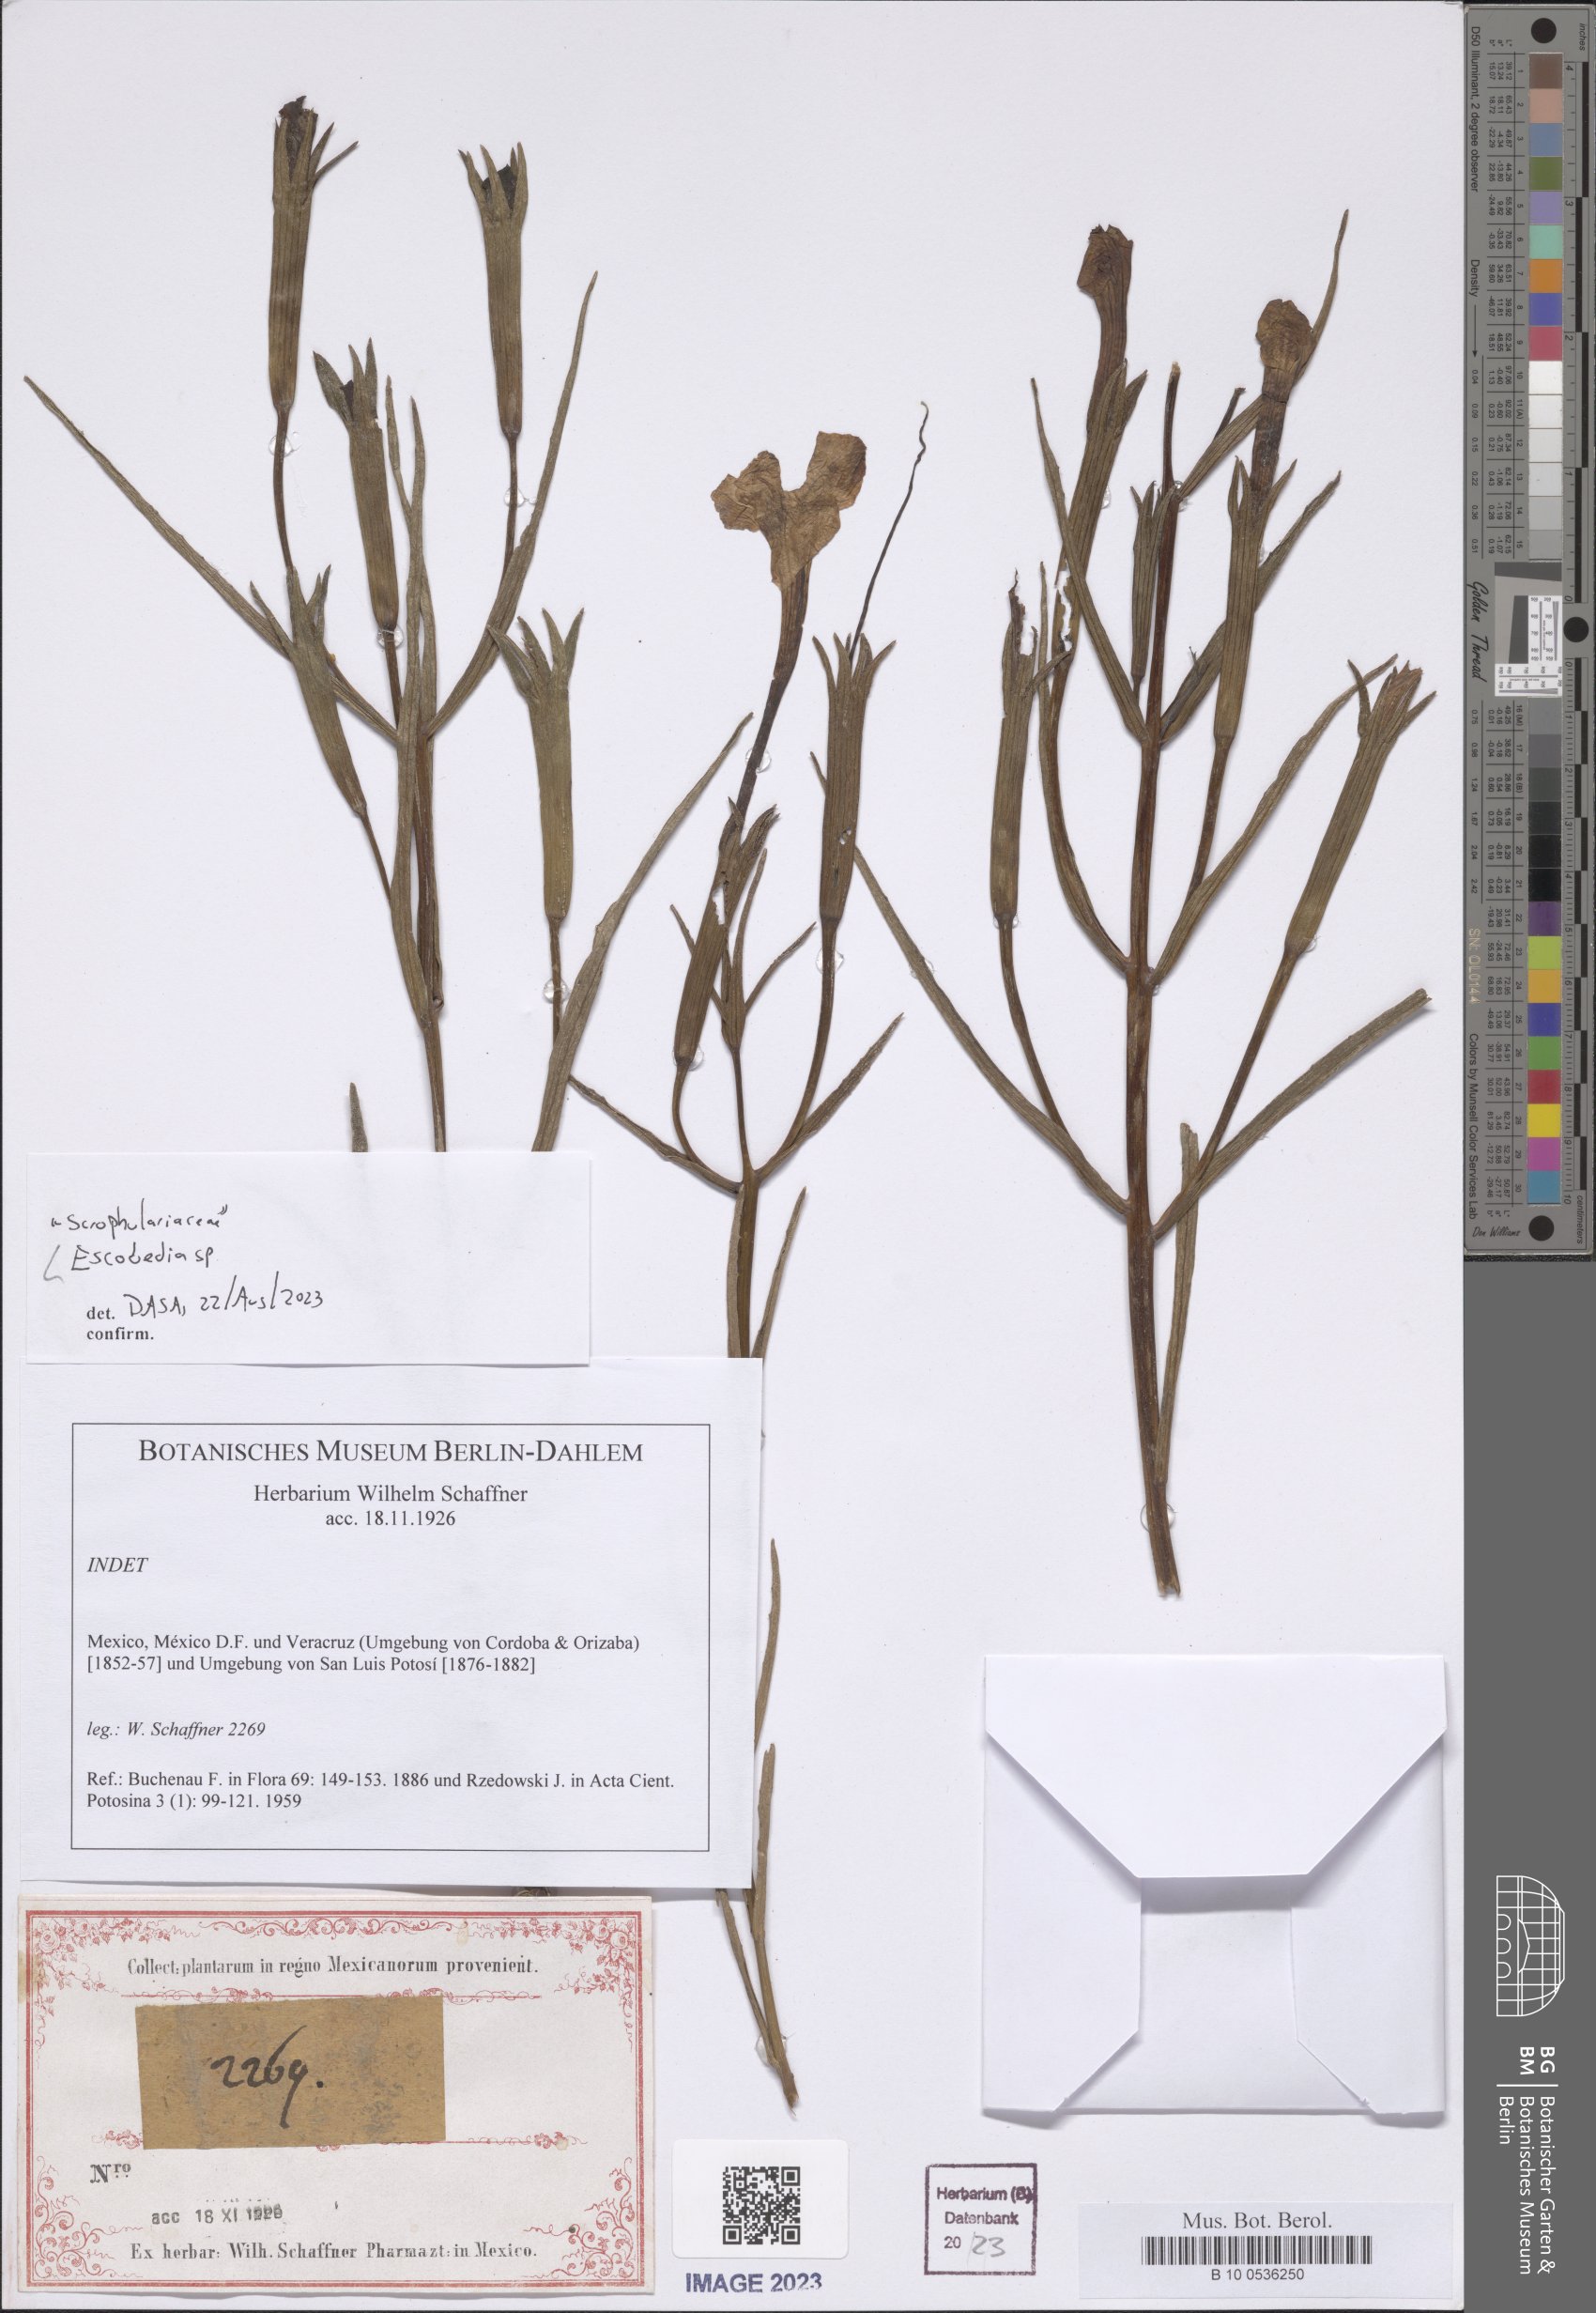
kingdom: Plantae
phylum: Tracheophyta
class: Magnoliopsida
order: Lamiales
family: Orobanchaceae
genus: Escobedia
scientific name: Escobedia
